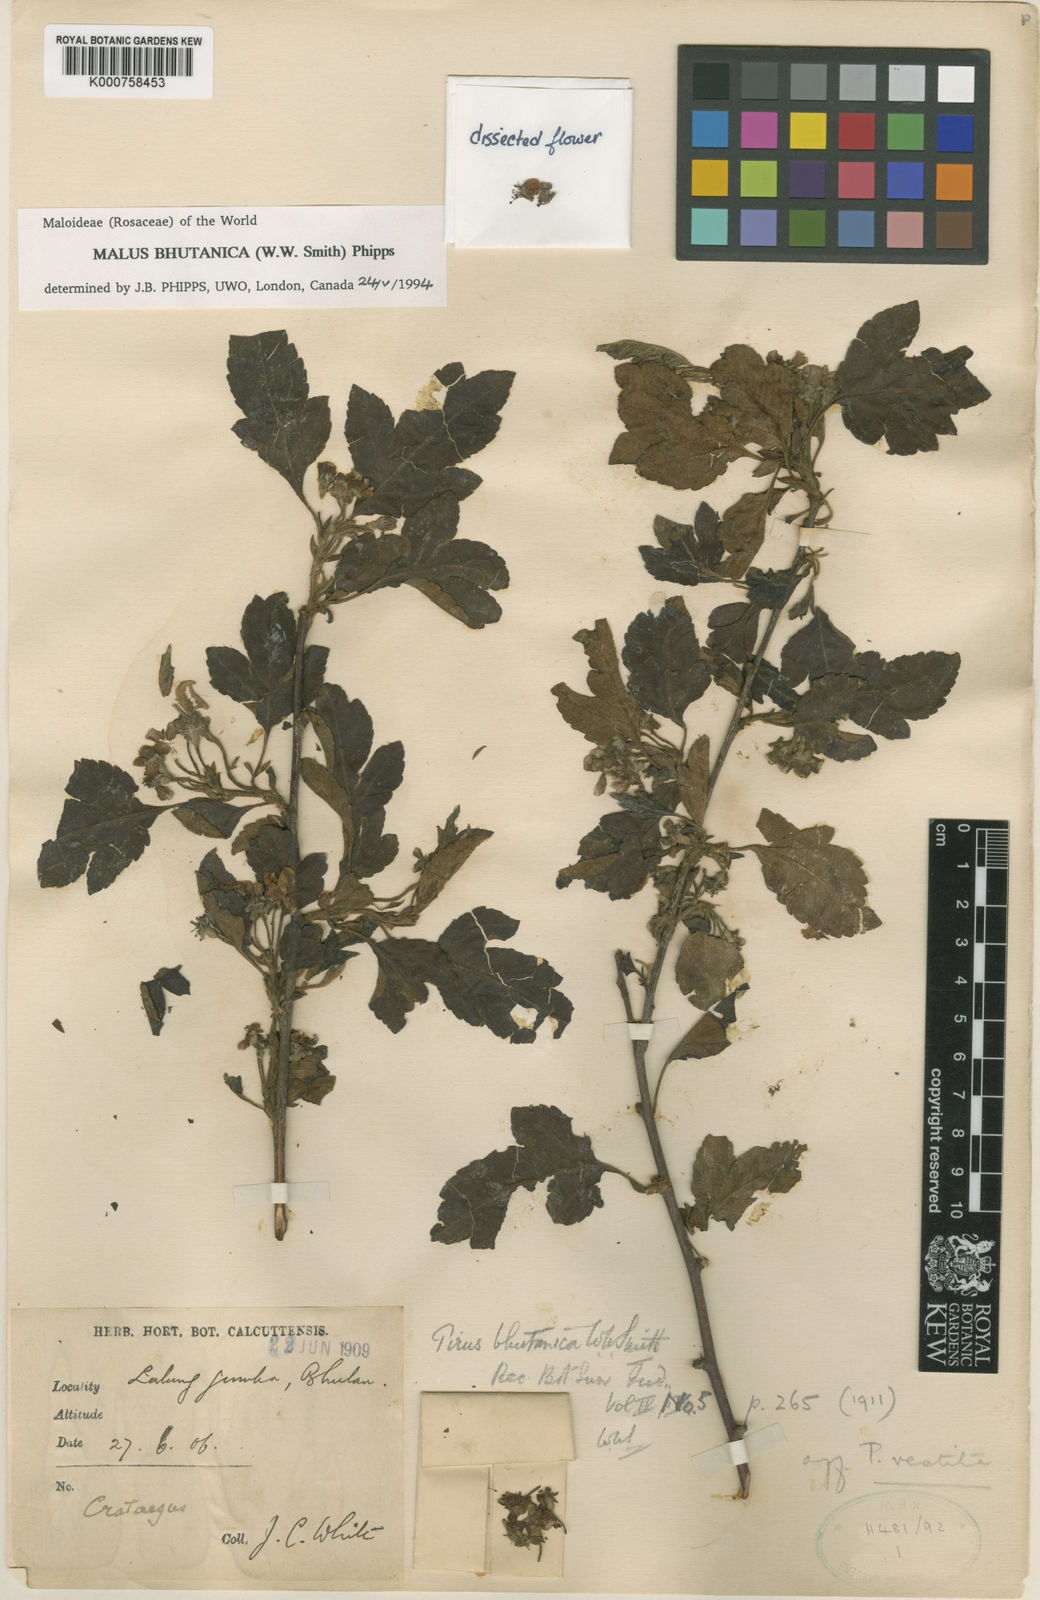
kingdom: Plantae
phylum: Tracheophyta
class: Magnoliopsida
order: Rosales
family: Rosaceae
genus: Malus
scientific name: Malus toringoides
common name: Cut-leaf crab apple
